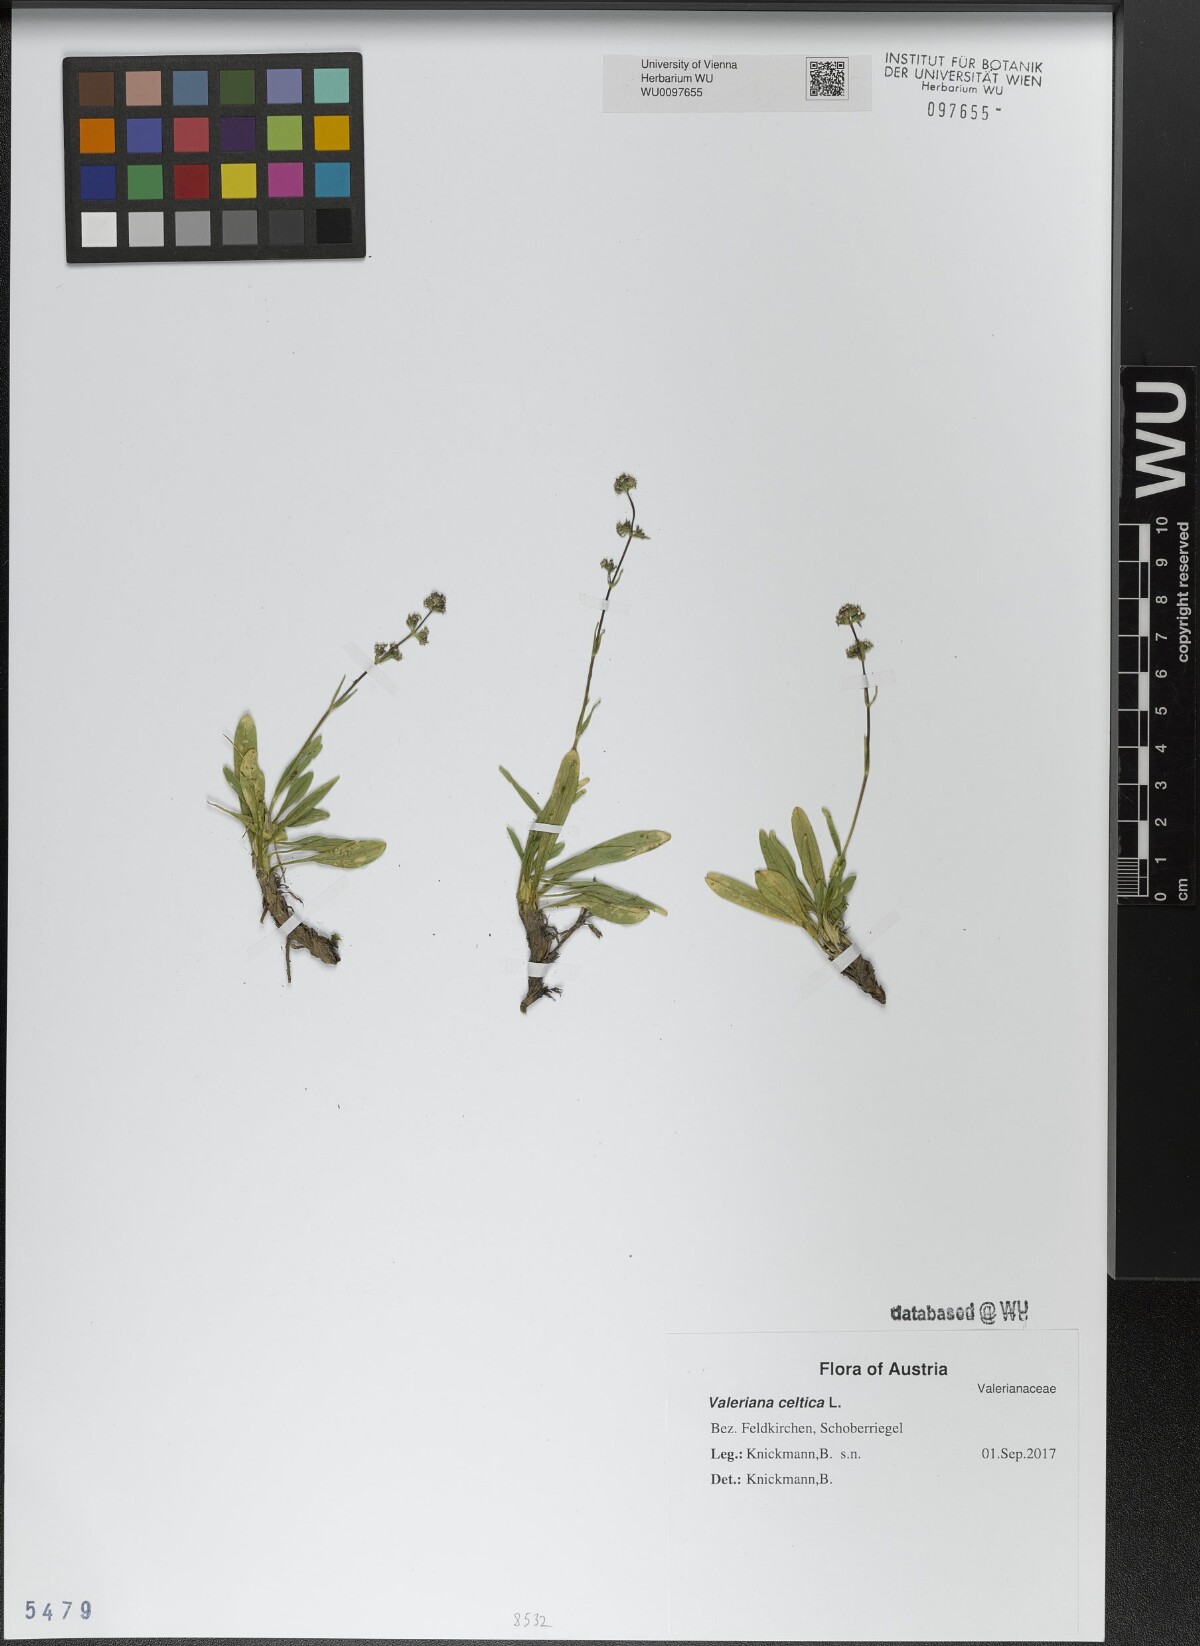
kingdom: Plantae
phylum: Tracheophyta
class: Magnoliopsida
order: Dipsacales
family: Caprifoliaceae
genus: Valeriana
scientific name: Valeriana celtica
